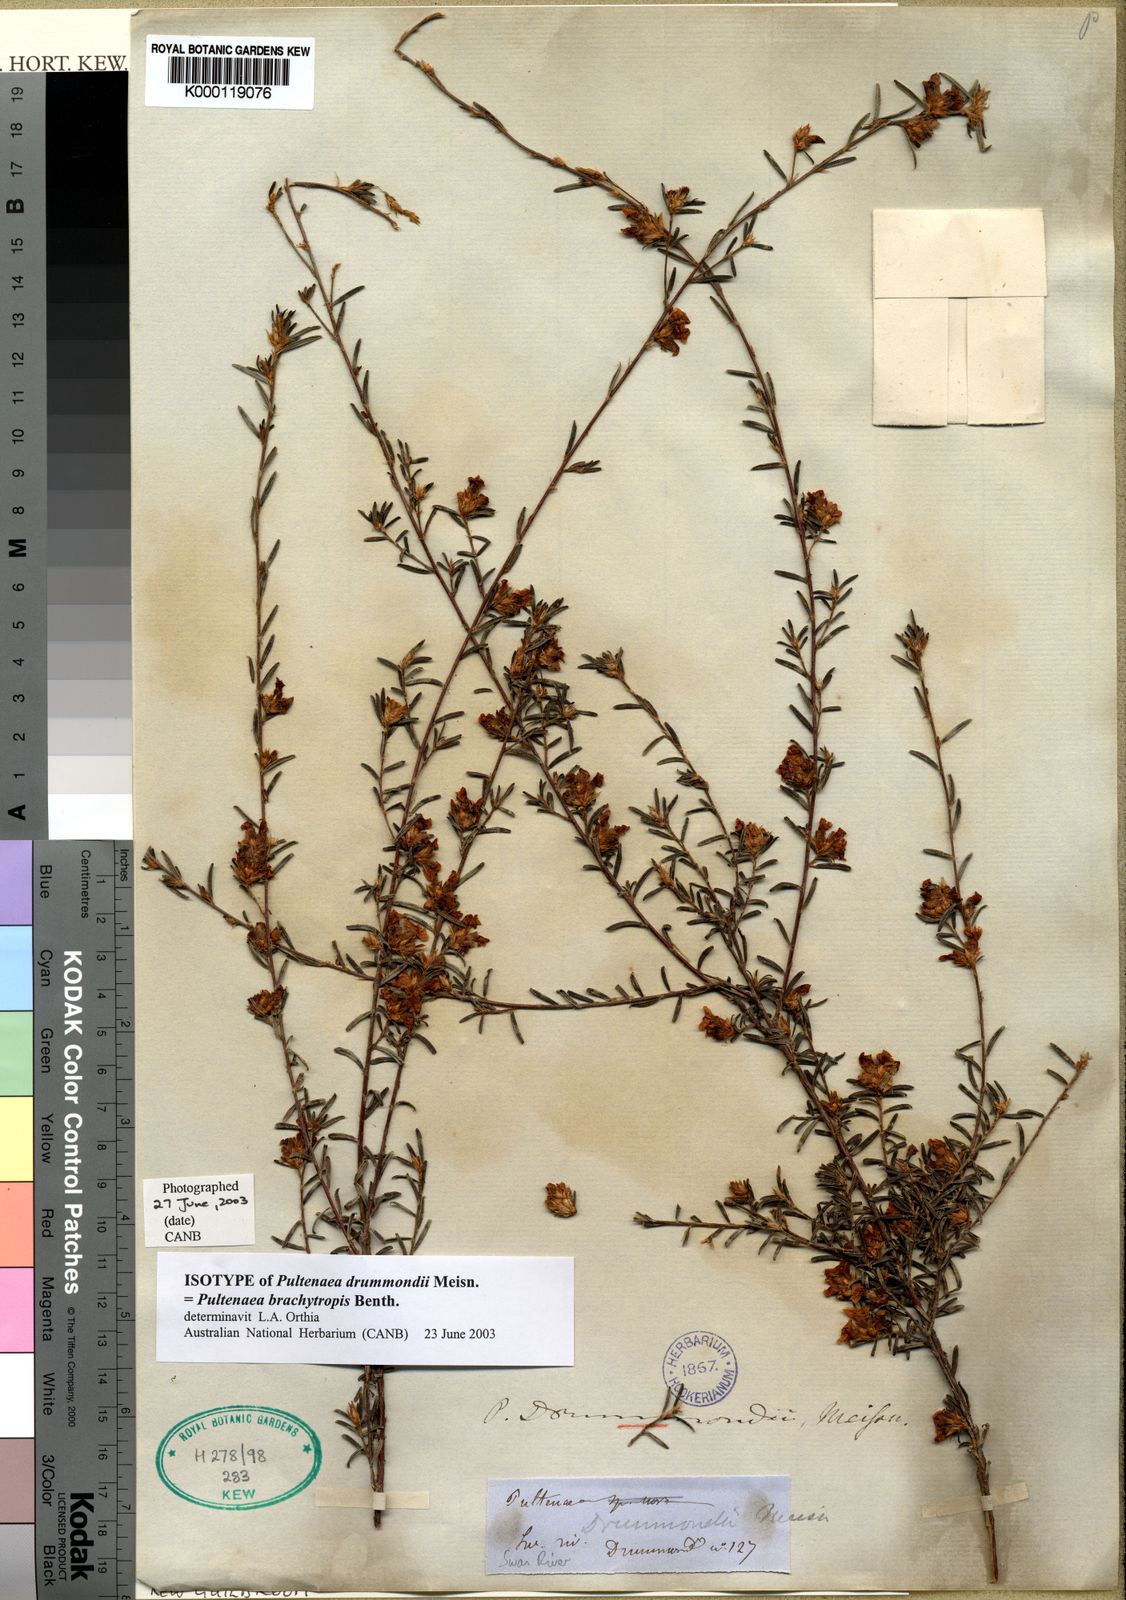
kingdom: Plantae
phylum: Tracheophyta
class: Magnoliopsida
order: Fabales
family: Fabaceae
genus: Pultenaea
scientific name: Pultenaea brachytropis
